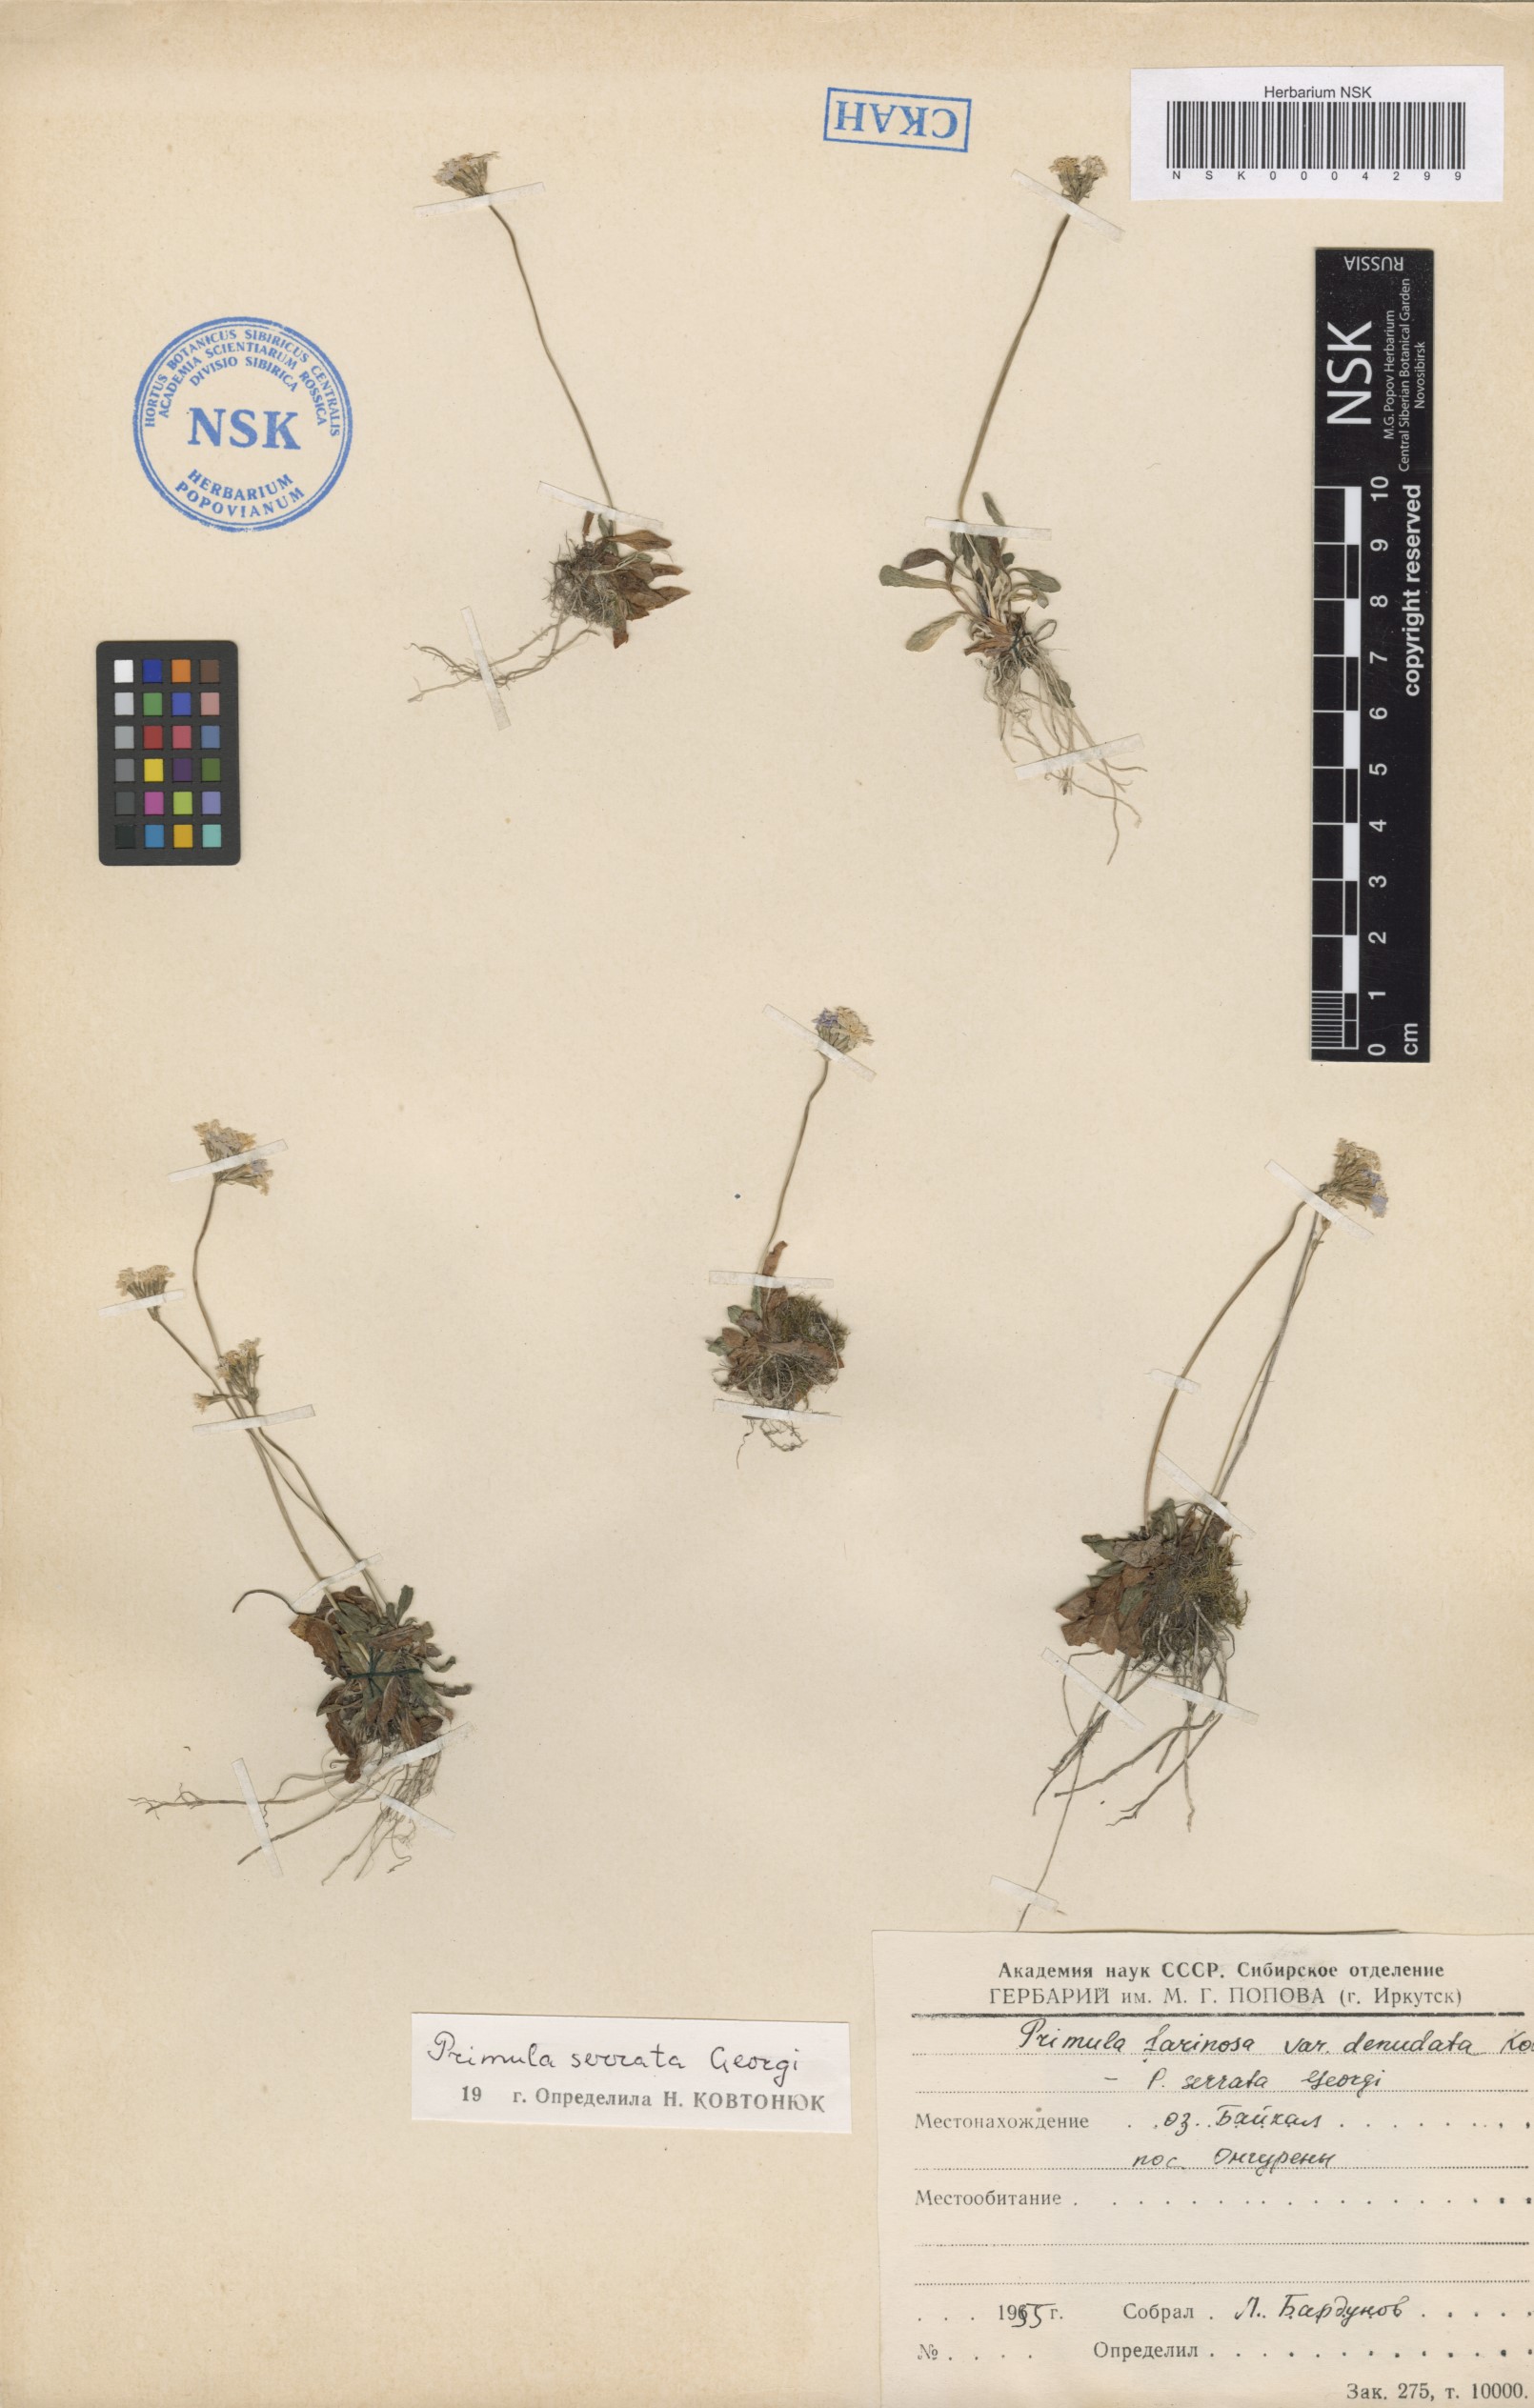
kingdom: Plantae
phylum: Tracheophyta
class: Magnoliopsida
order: Ericales
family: Primulaceae
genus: Primula
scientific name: Primula serrata
